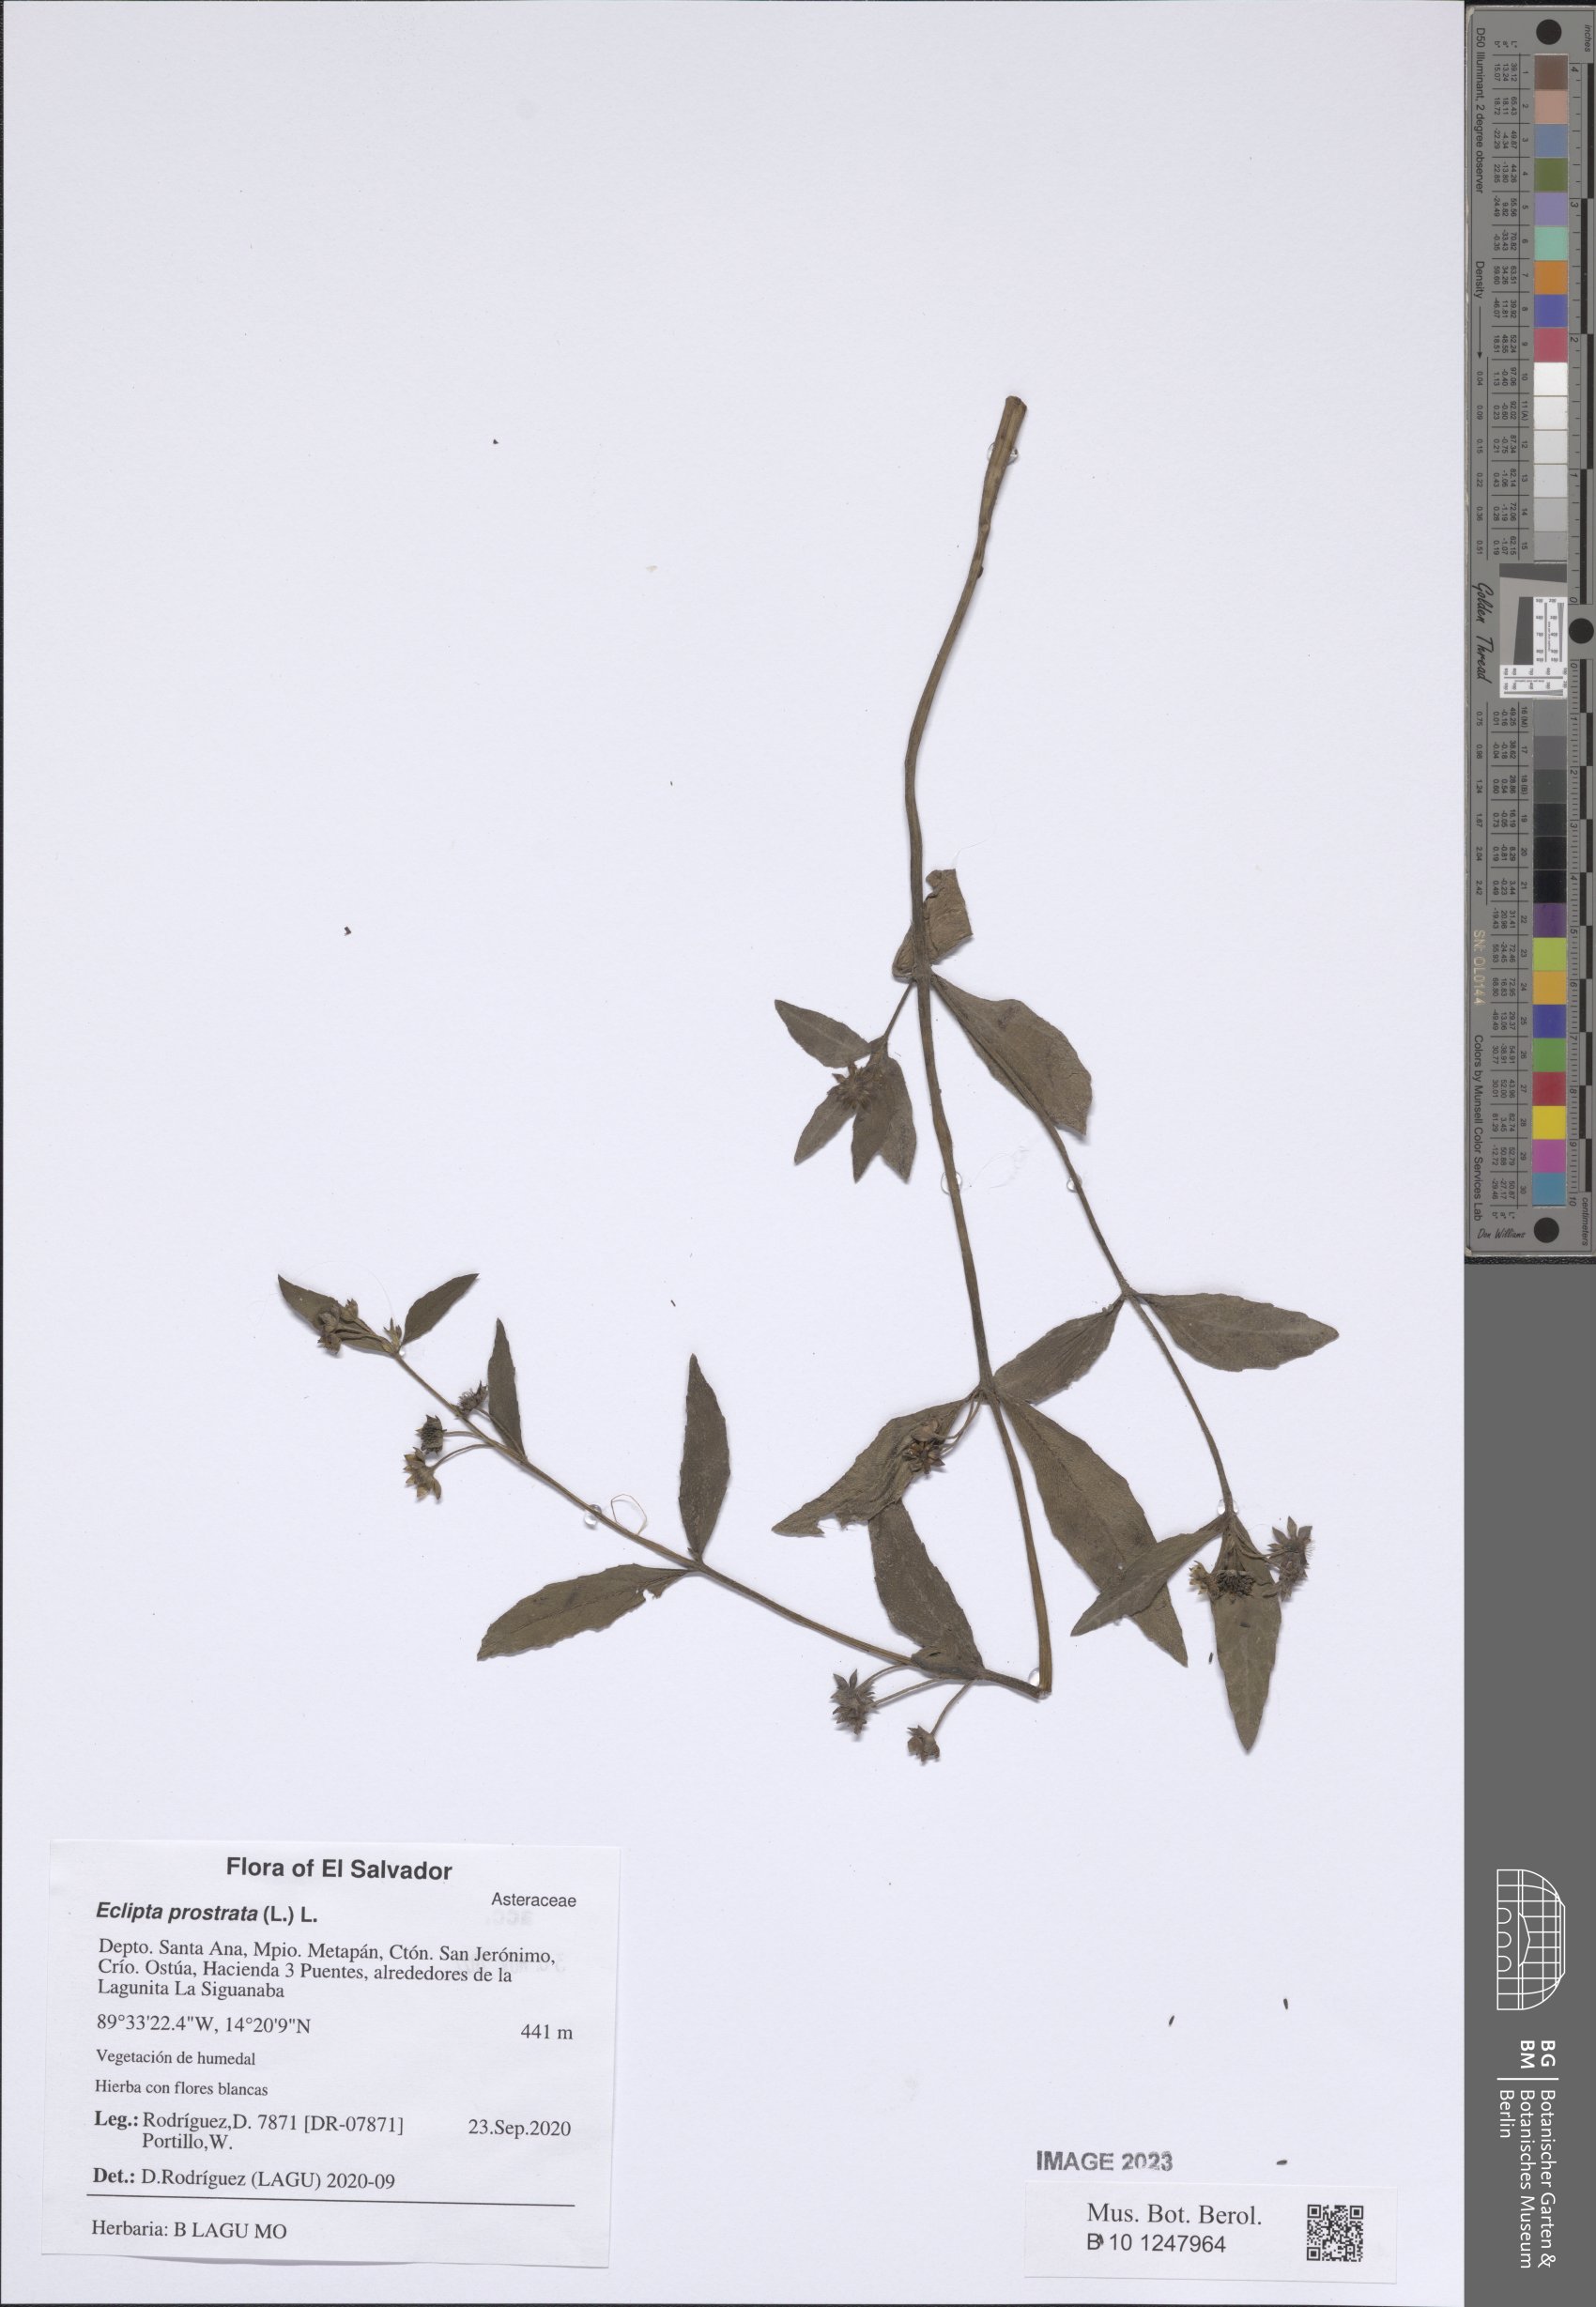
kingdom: Plantae
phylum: Tracheophyta
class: Magnoliopsida
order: Asterales
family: Asteraceae
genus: Eclipta
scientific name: Eclipta prostrata
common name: False daisy
